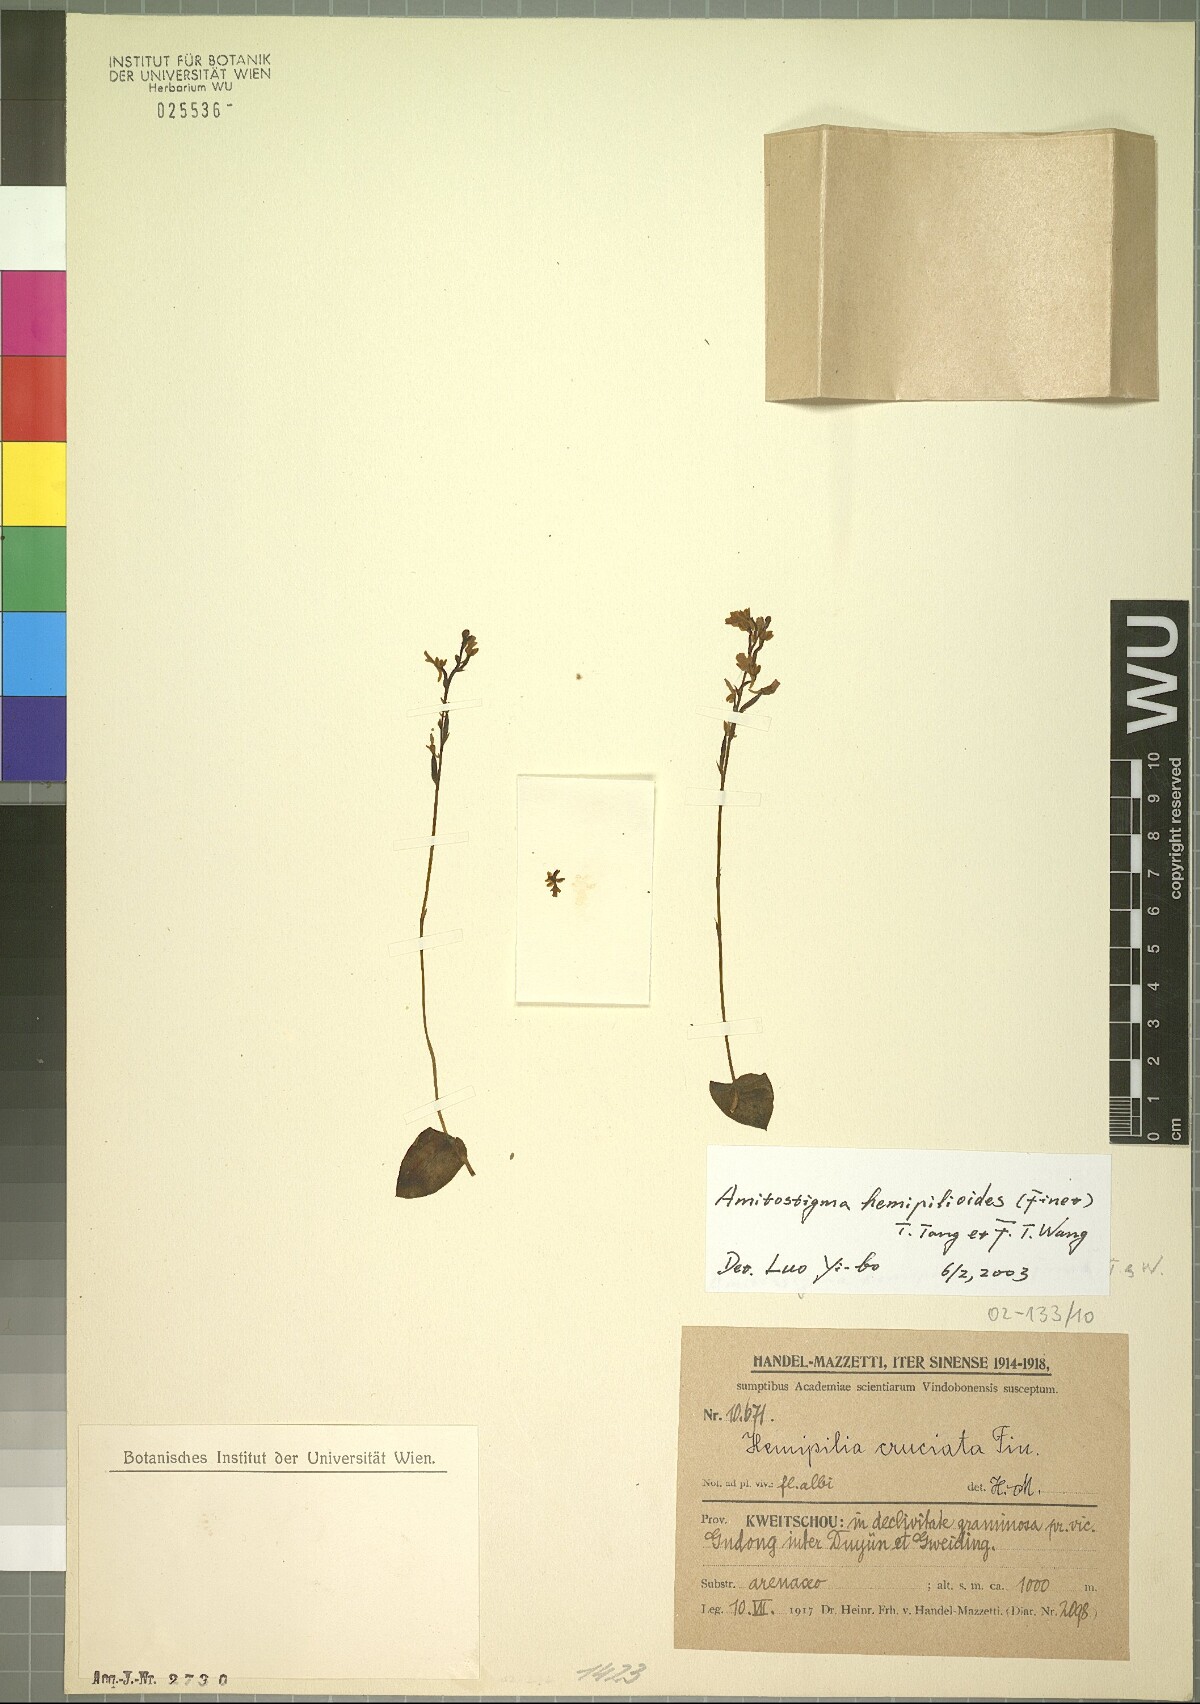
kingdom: Plantae
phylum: Tracheophyta
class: Liliopsida
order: Asparagales
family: Orchidaceae
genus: Hemipilia
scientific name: Hemipilia hemipilioides
